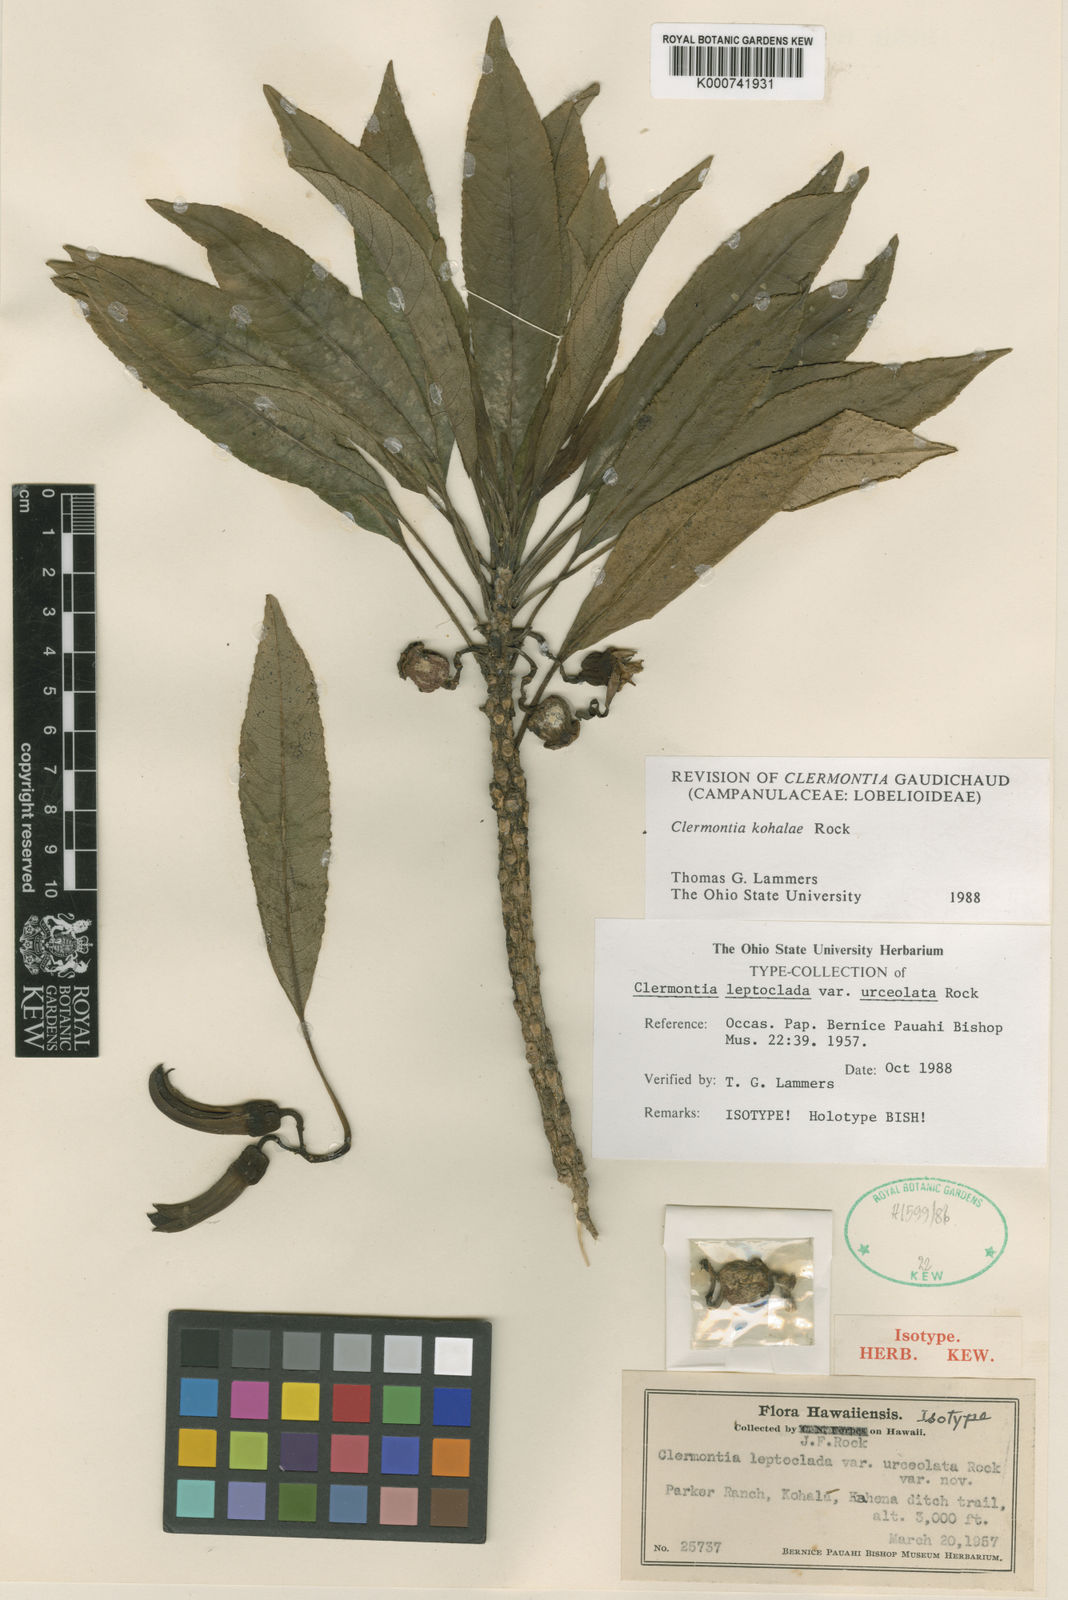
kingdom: Plantae
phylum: Tracheophyta
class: Magnoliopsida
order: Asterales
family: Campanulaceae
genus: Clermontia
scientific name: Clermontia kohalae
